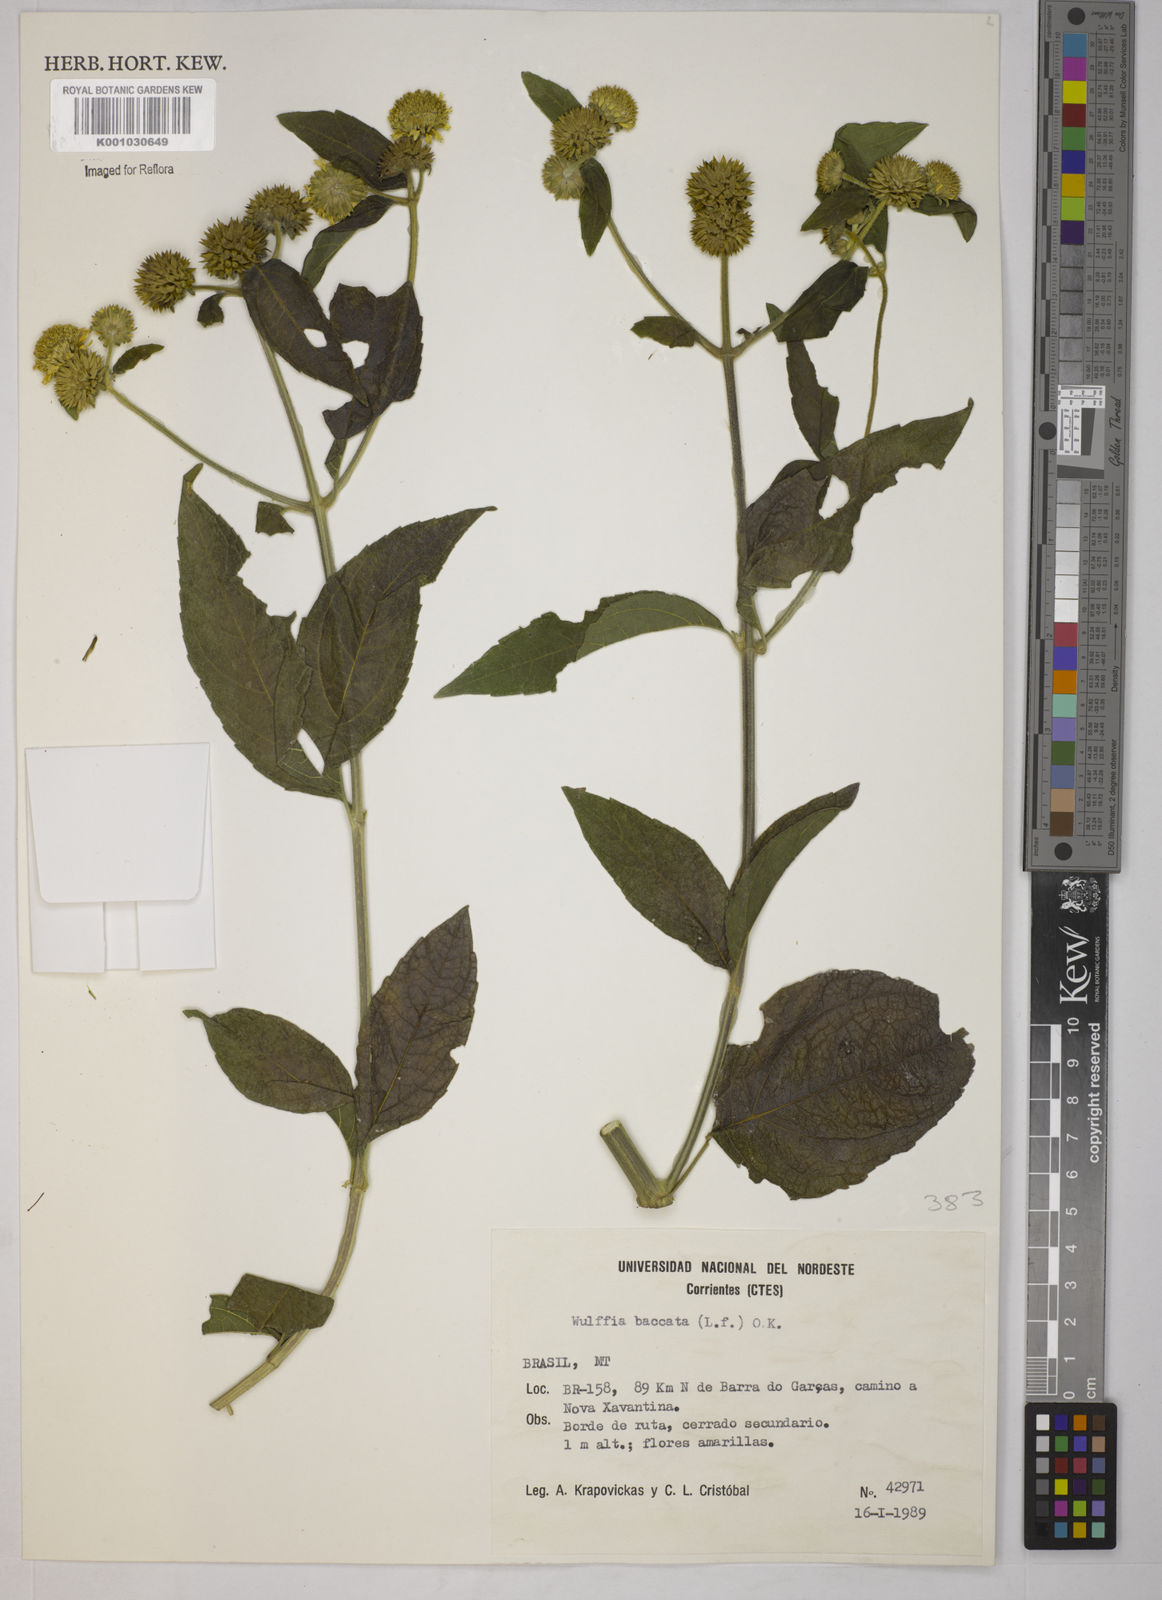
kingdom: Plantae
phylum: Tracheophyta
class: Magnoliopsida
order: Asterales
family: Asteraceae
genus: Tilesia
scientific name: Tilesia baccata
